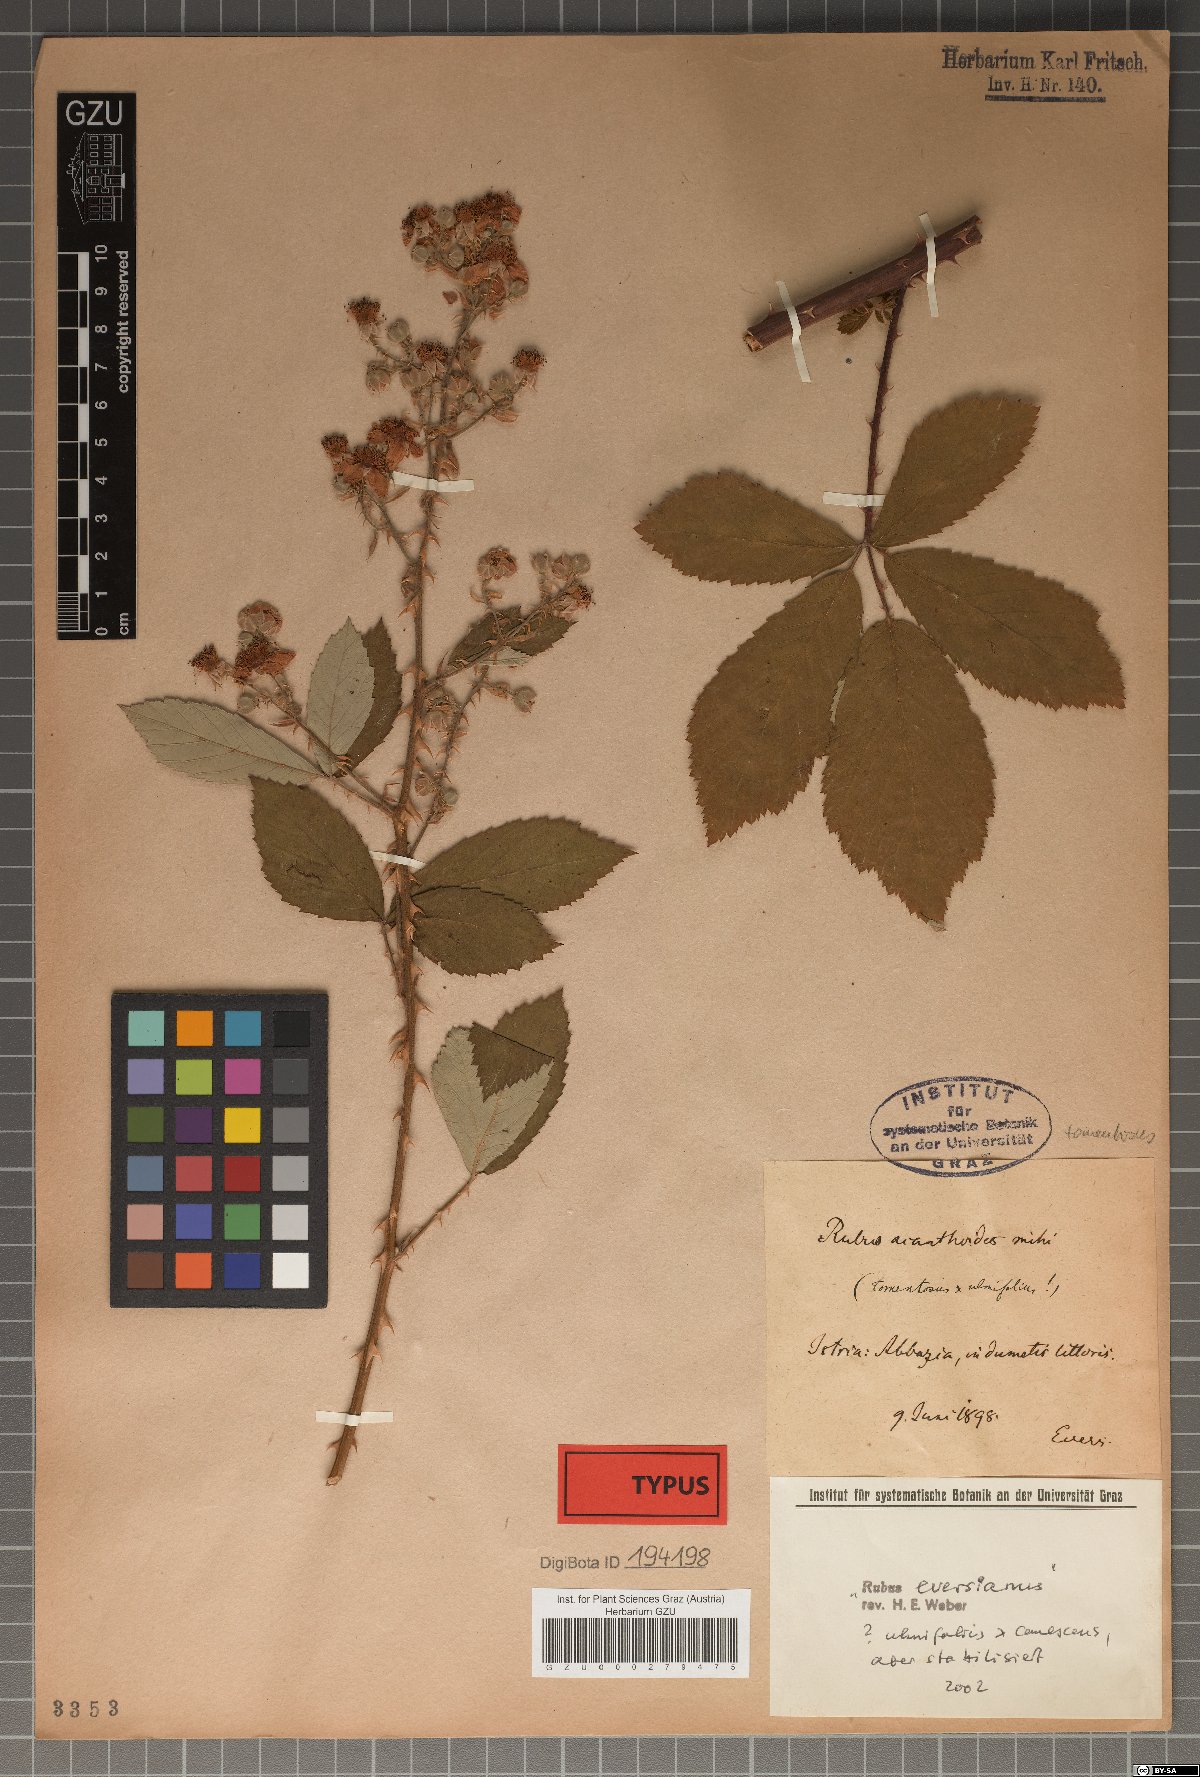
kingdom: Plantae
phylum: Tracheophyta
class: Magnoliopsida
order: Rosales
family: Rosaceae
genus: Rubus
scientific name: Rubus ancanthoides
